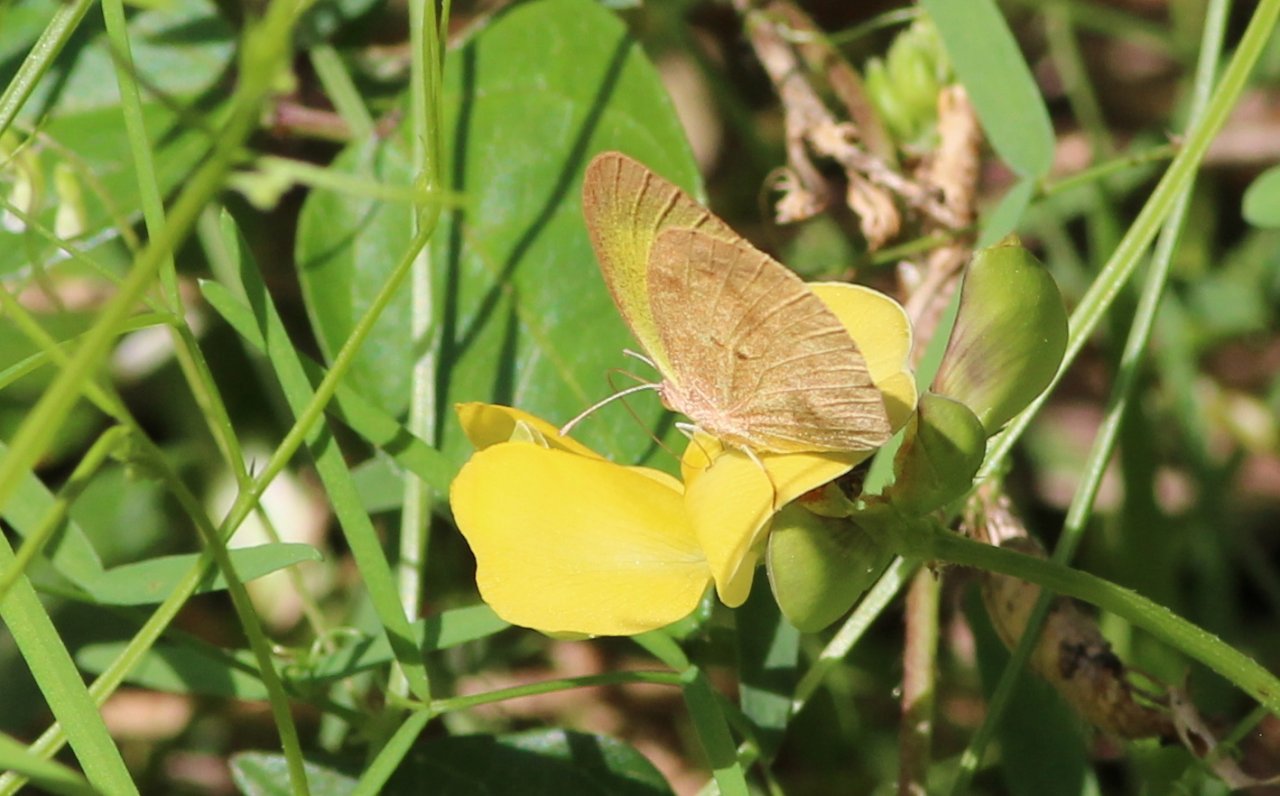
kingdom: Animalia
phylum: Arthropoda
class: Insecta
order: Lepidoptera
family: Pieridae
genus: Eurema
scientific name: Eurema daira
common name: Barred Yellow
